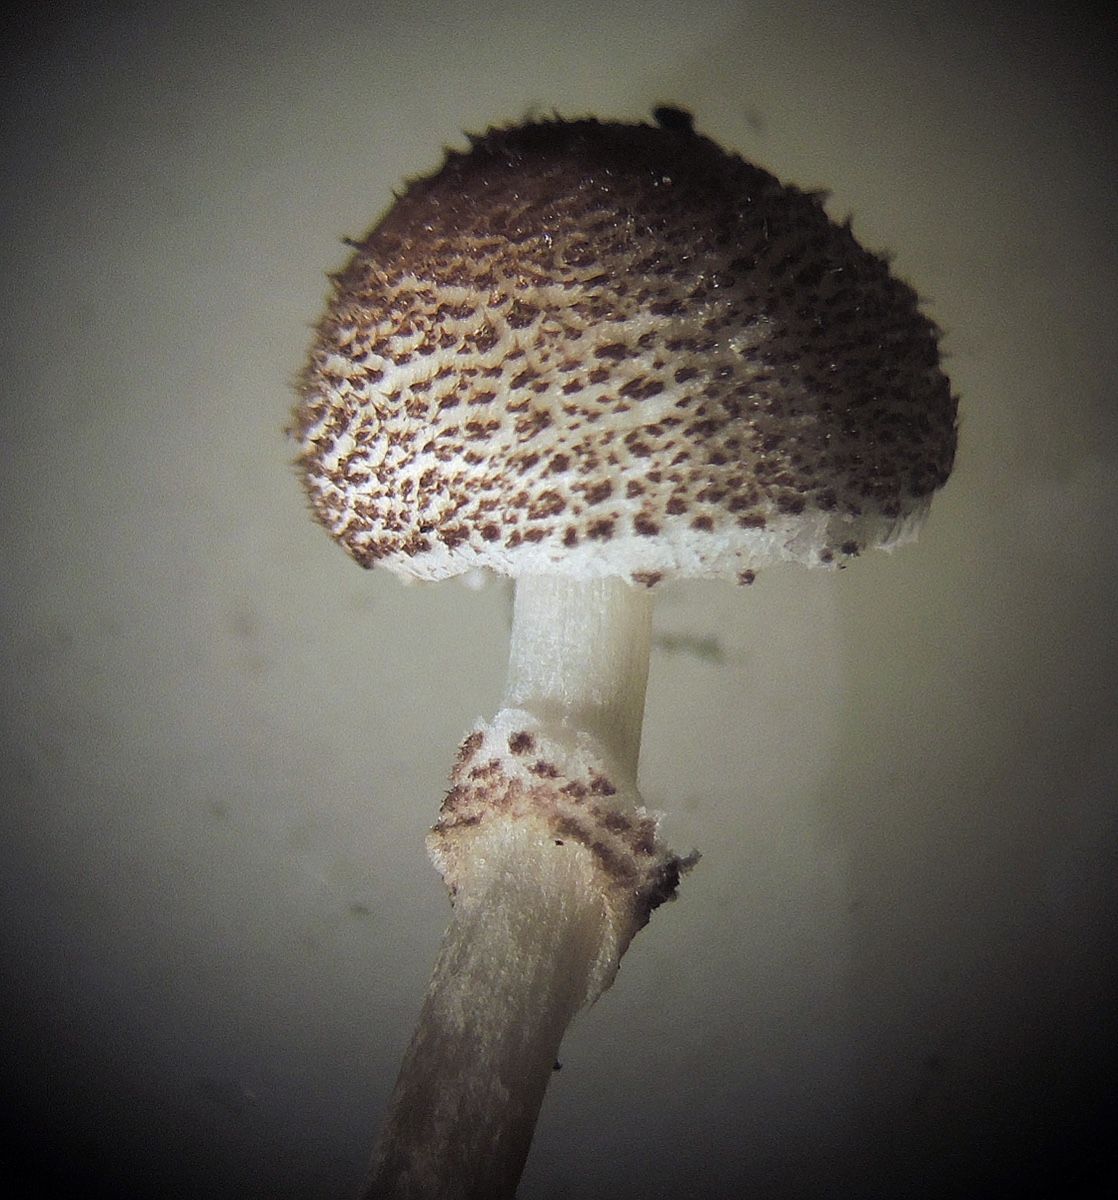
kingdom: Fungi
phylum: Basidiomycota
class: Agaricomycetes
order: Agaricales
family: Agaricaceae
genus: Lepiota
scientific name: Lepiota felina
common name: sortskællet parasolhat
